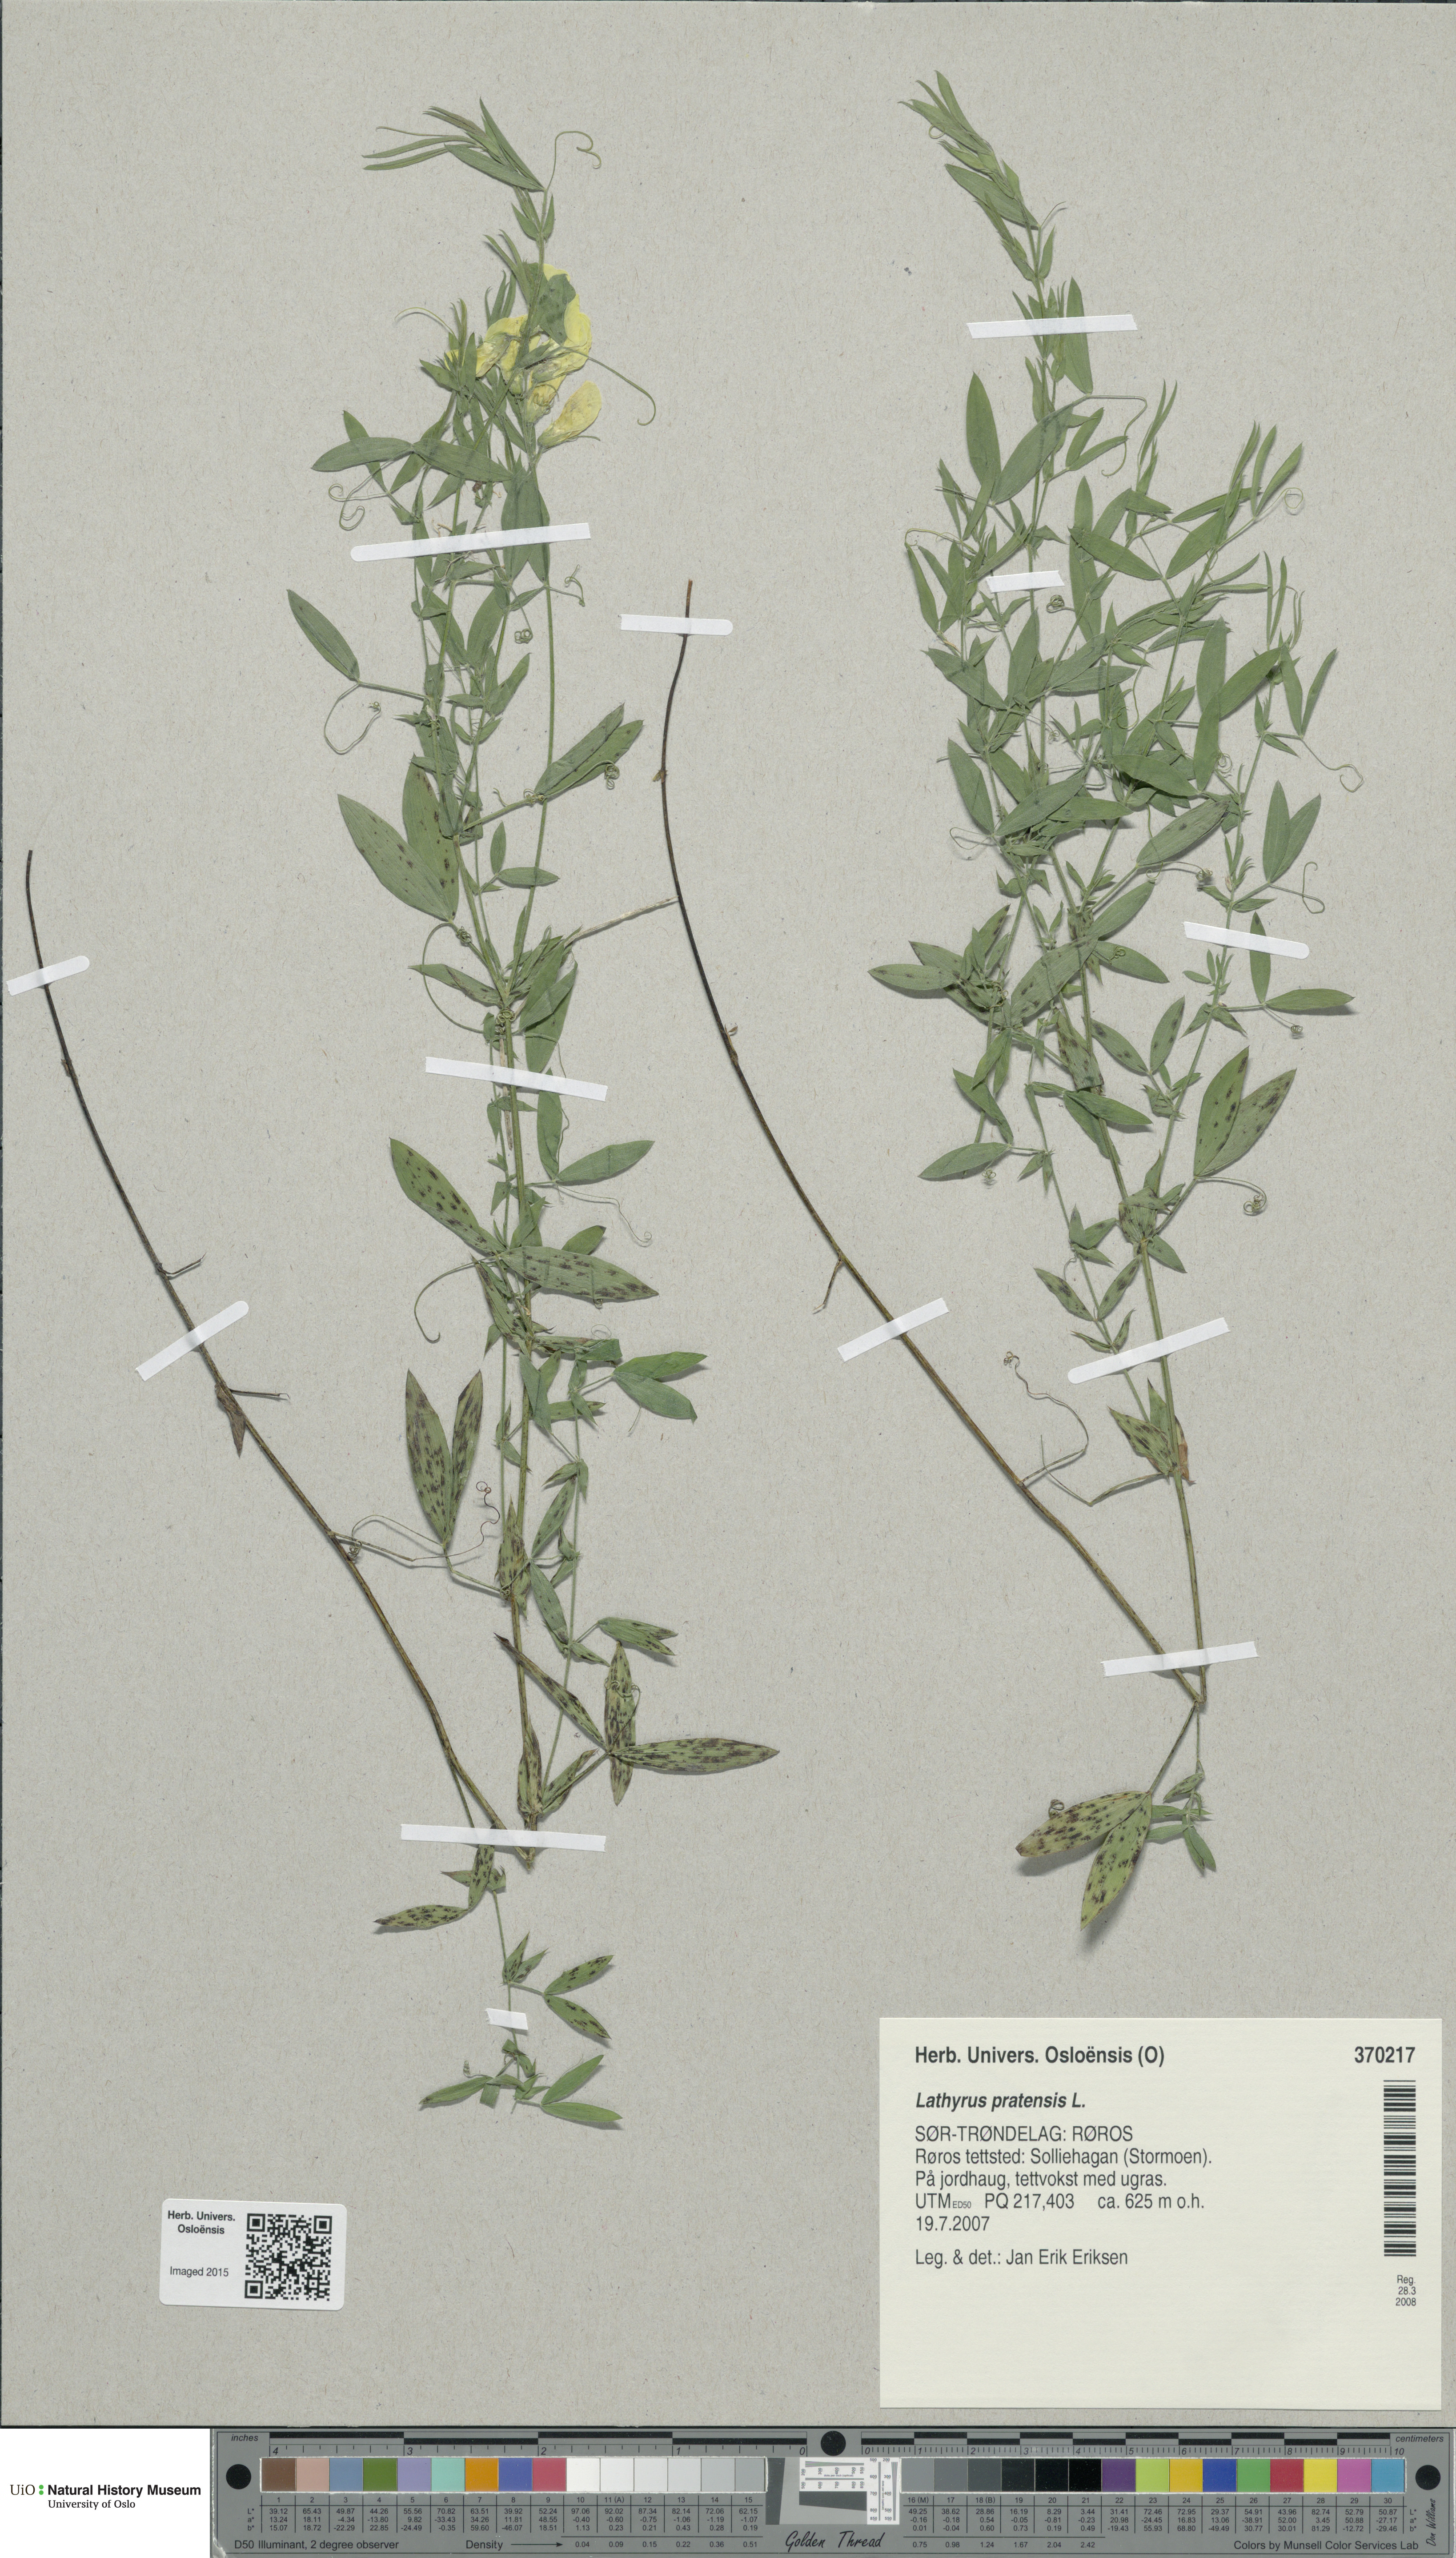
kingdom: Plantae
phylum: Tracheophyta
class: Magnoliopsida
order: Fabales
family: Fabaceae
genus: Lathyrus
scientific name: Lathyrus pratensis
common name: Meadow vetchling
